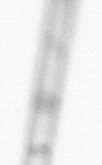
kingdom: Chromista
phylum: Ochrophyta
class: Bacillariophyceae
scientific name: Bacillariophyceae
